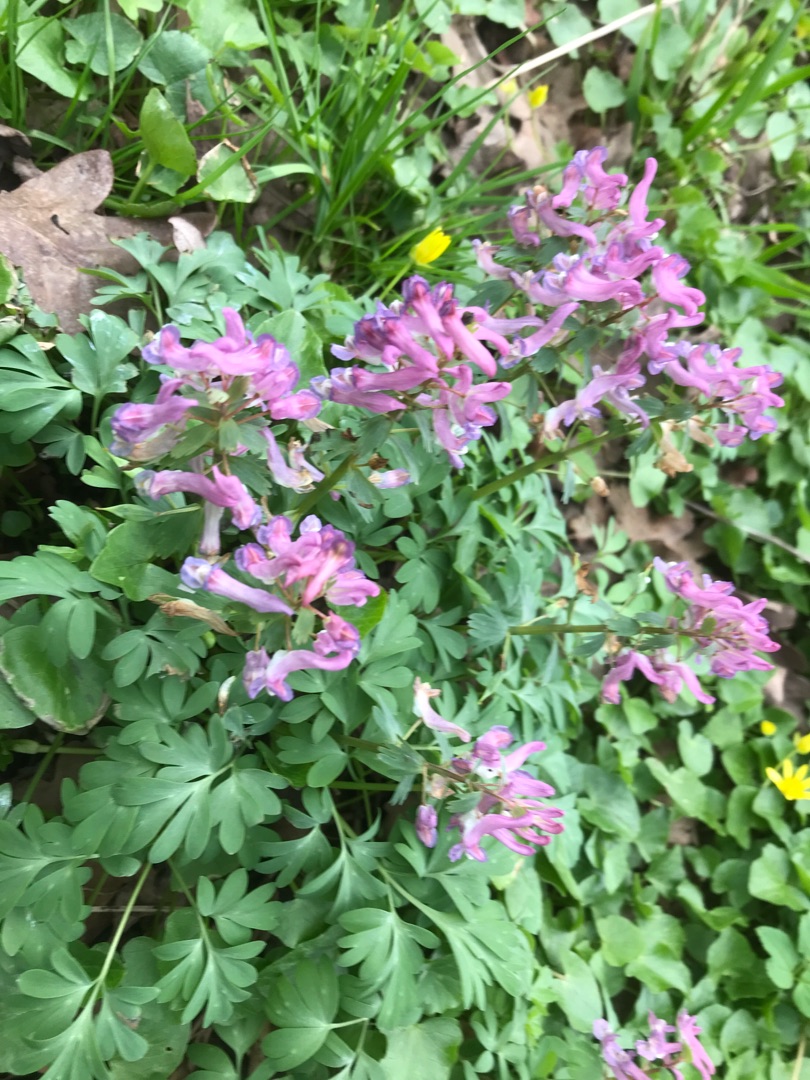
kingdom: Plantae
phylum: Tracheophyta
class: Magnoliopsida
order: Ranunculales
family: Papaveraceae
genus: Corydalis
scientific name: Corydalis solida
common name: Langstilket lærkespore
